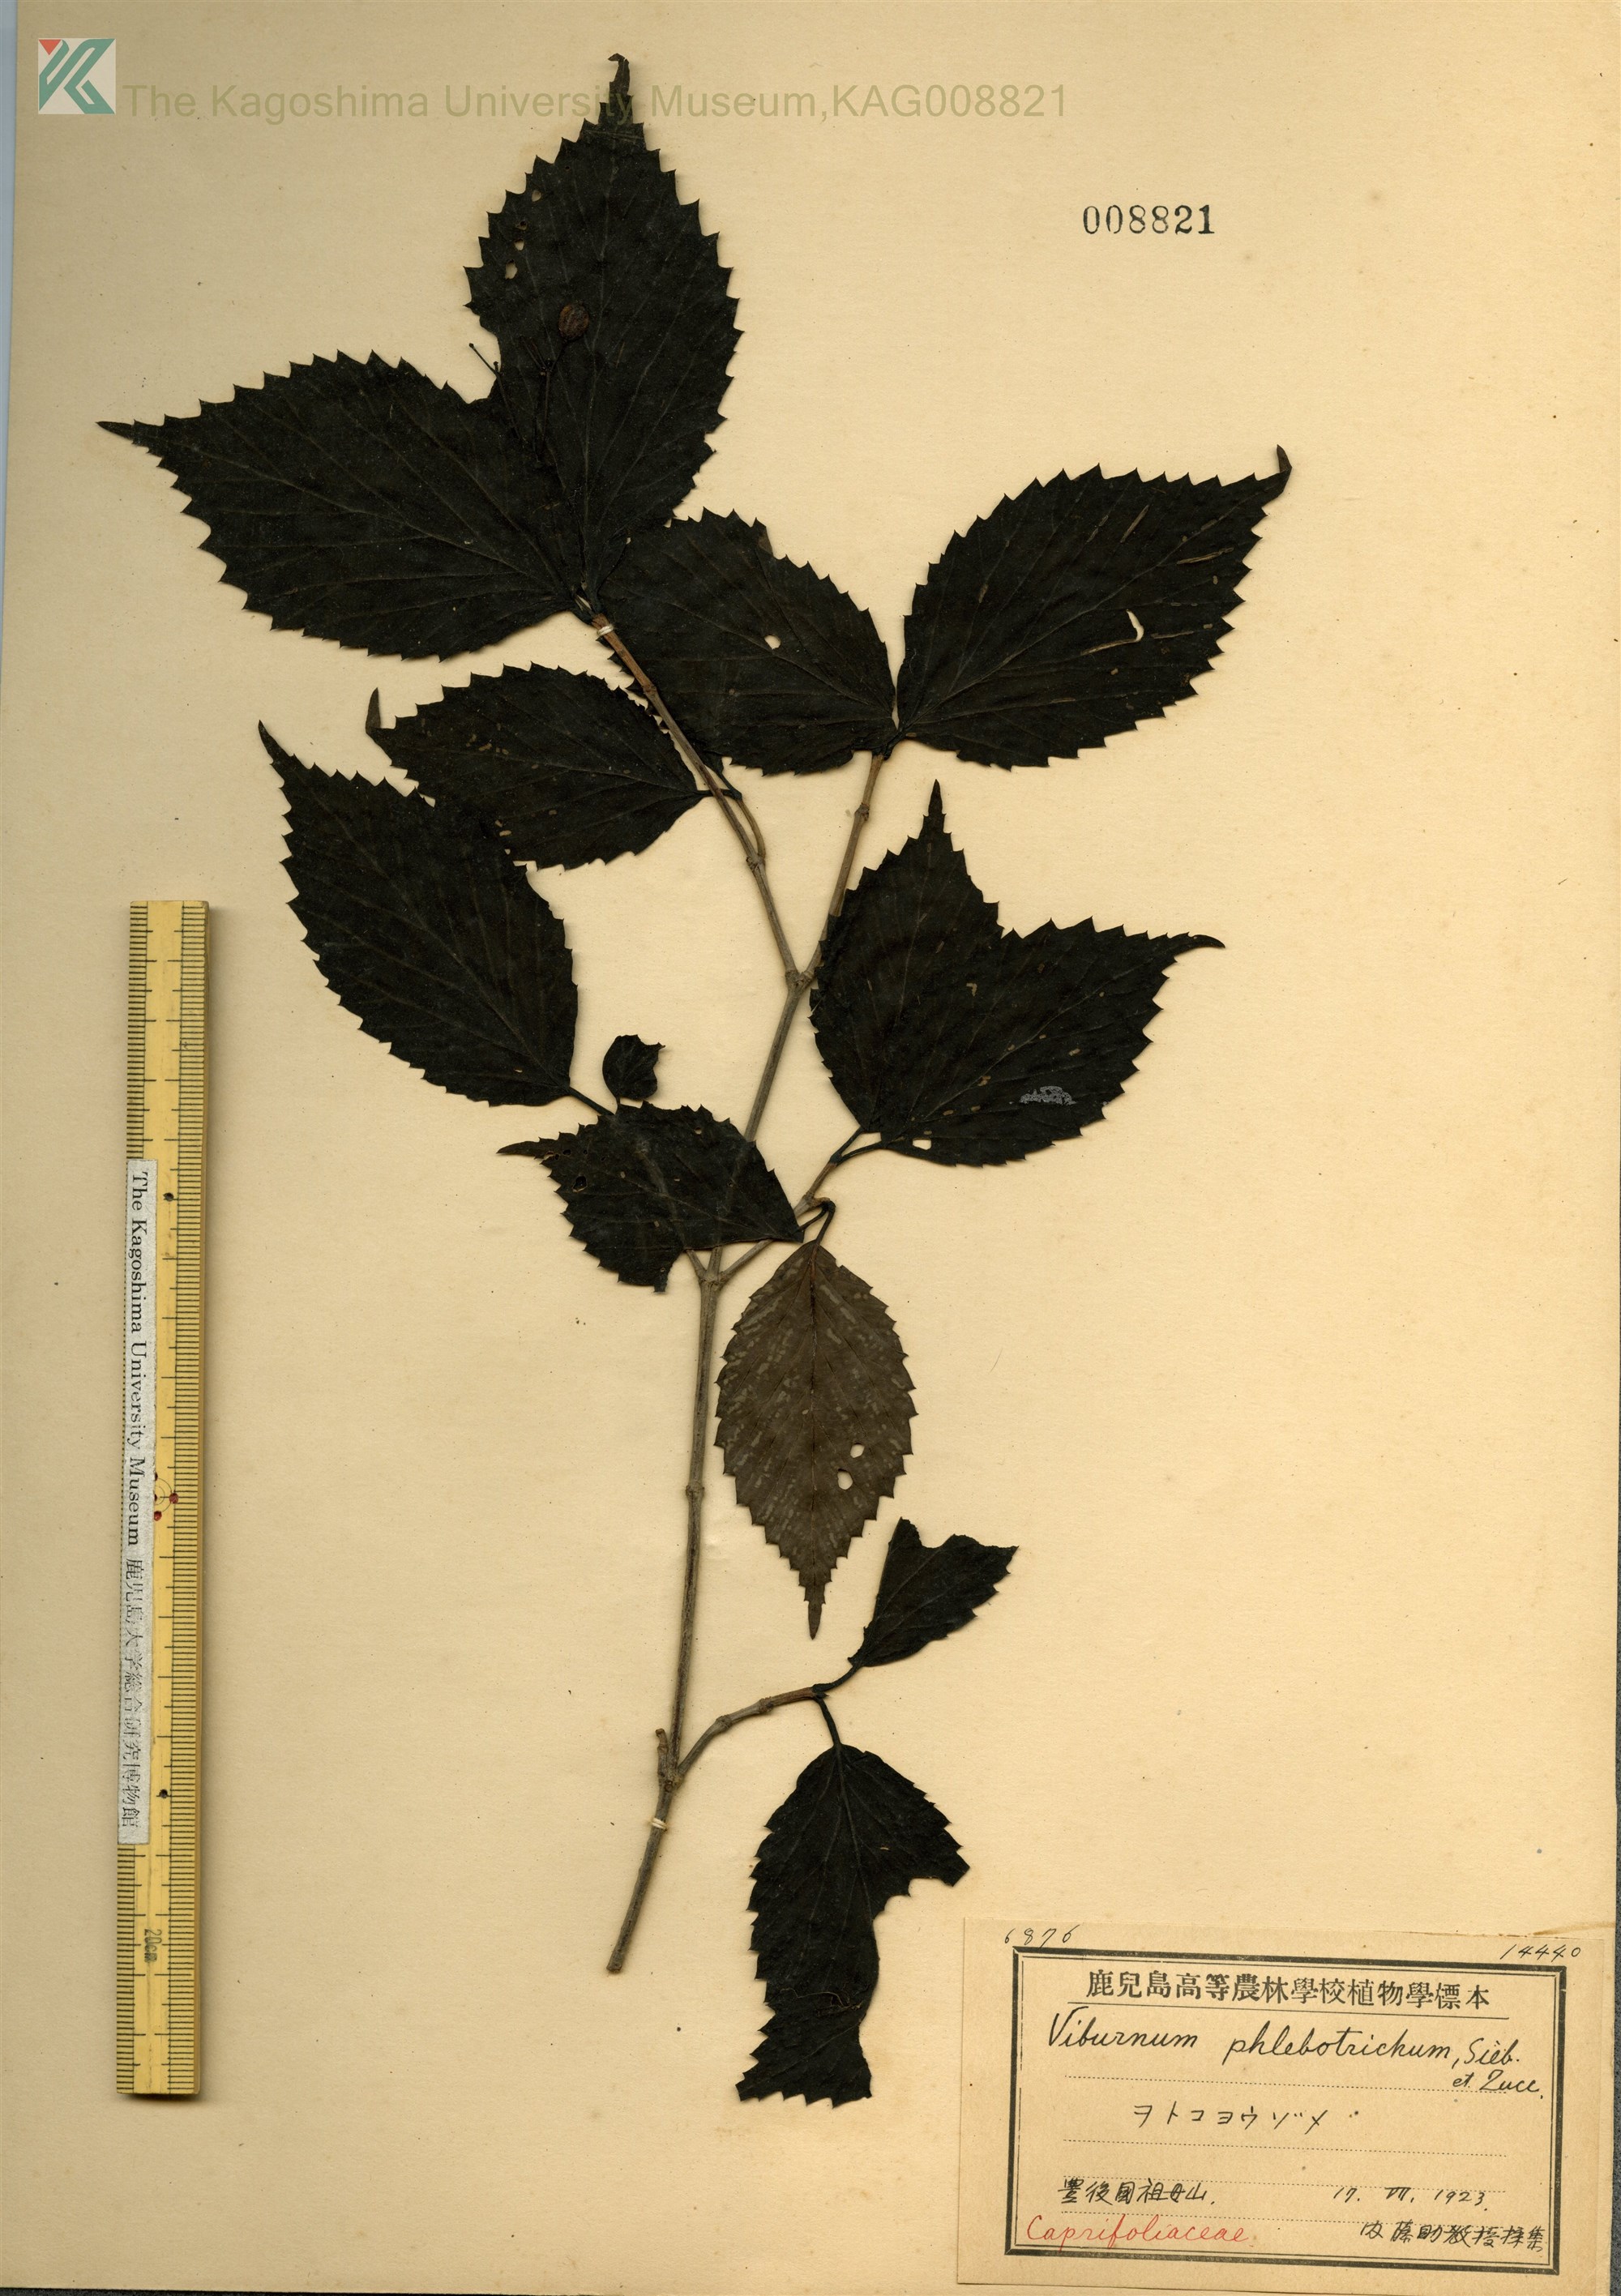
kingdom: Plantae
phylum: Tracheophyta
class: Magnoliopsida
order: Dipsacales
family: Viburnaceae
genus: Viburnum
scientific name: Viburnum phlebotrichum
